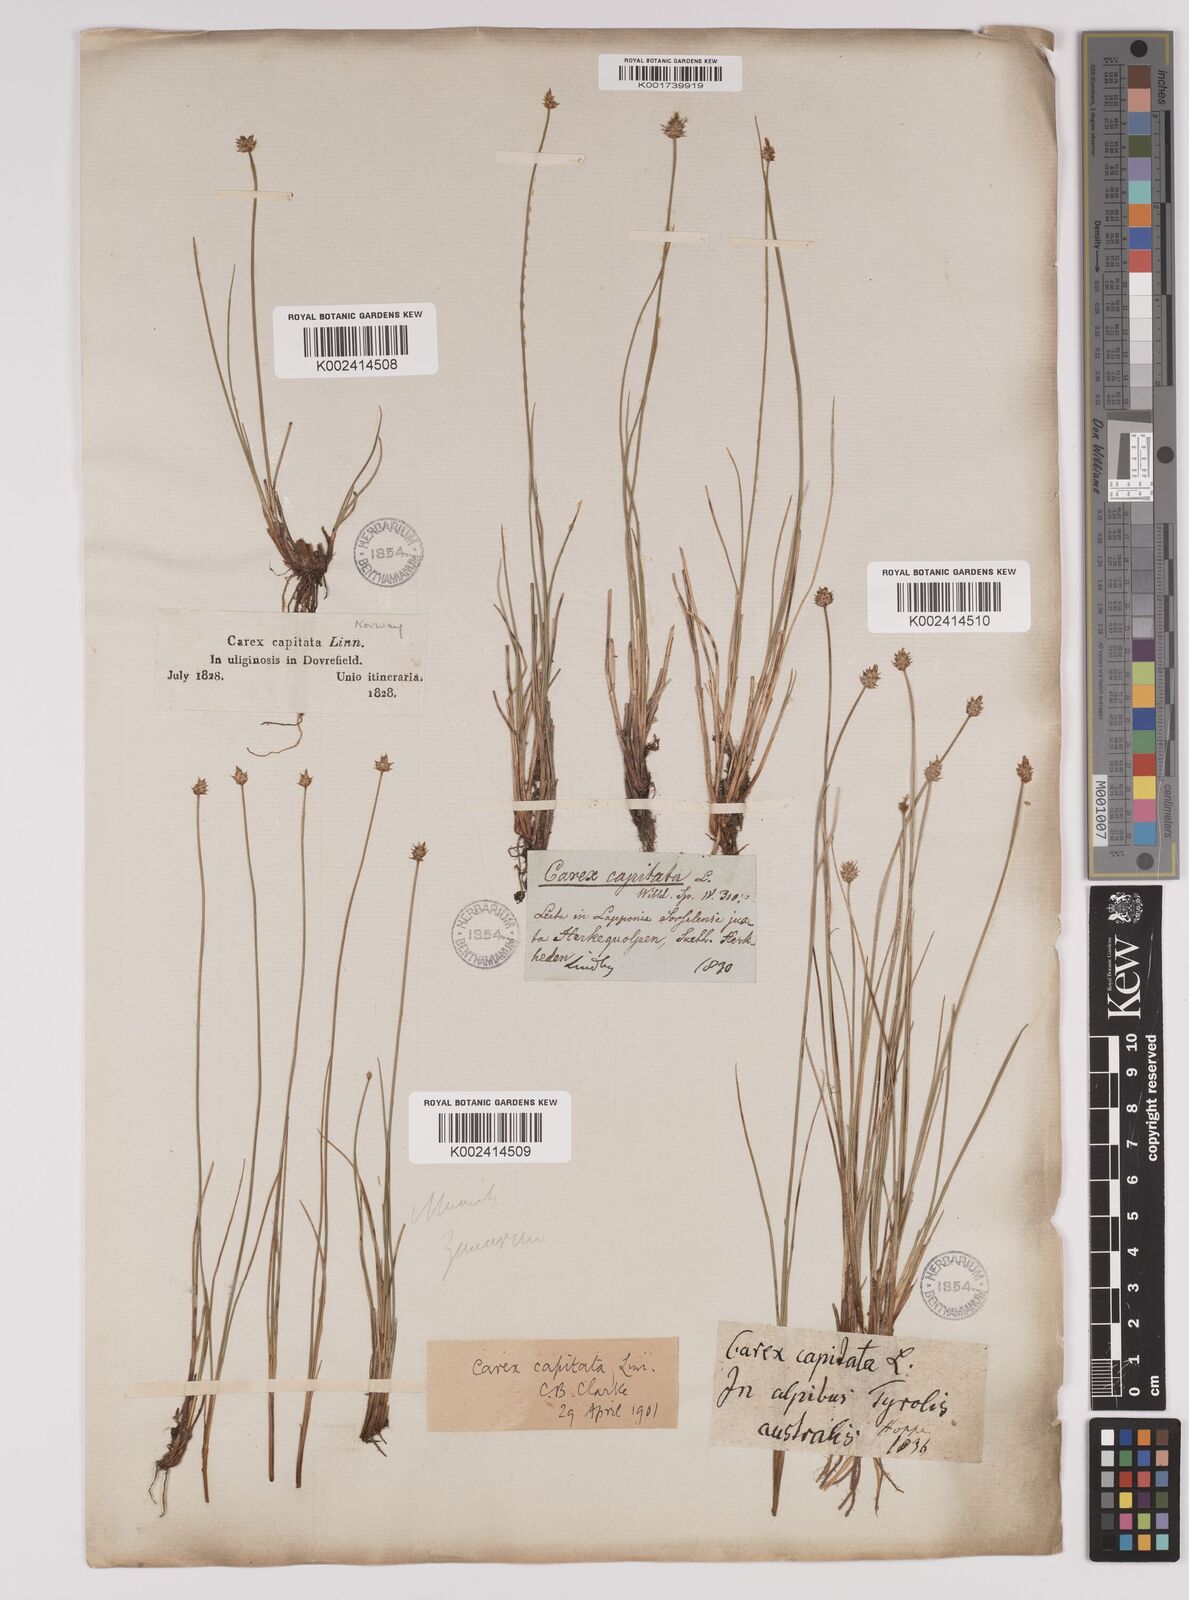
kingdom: Plantae
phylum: Tracheophyta
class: Liliopsida
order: Poales
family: Cyperaceae
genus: Carex
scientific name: Carex capitata
